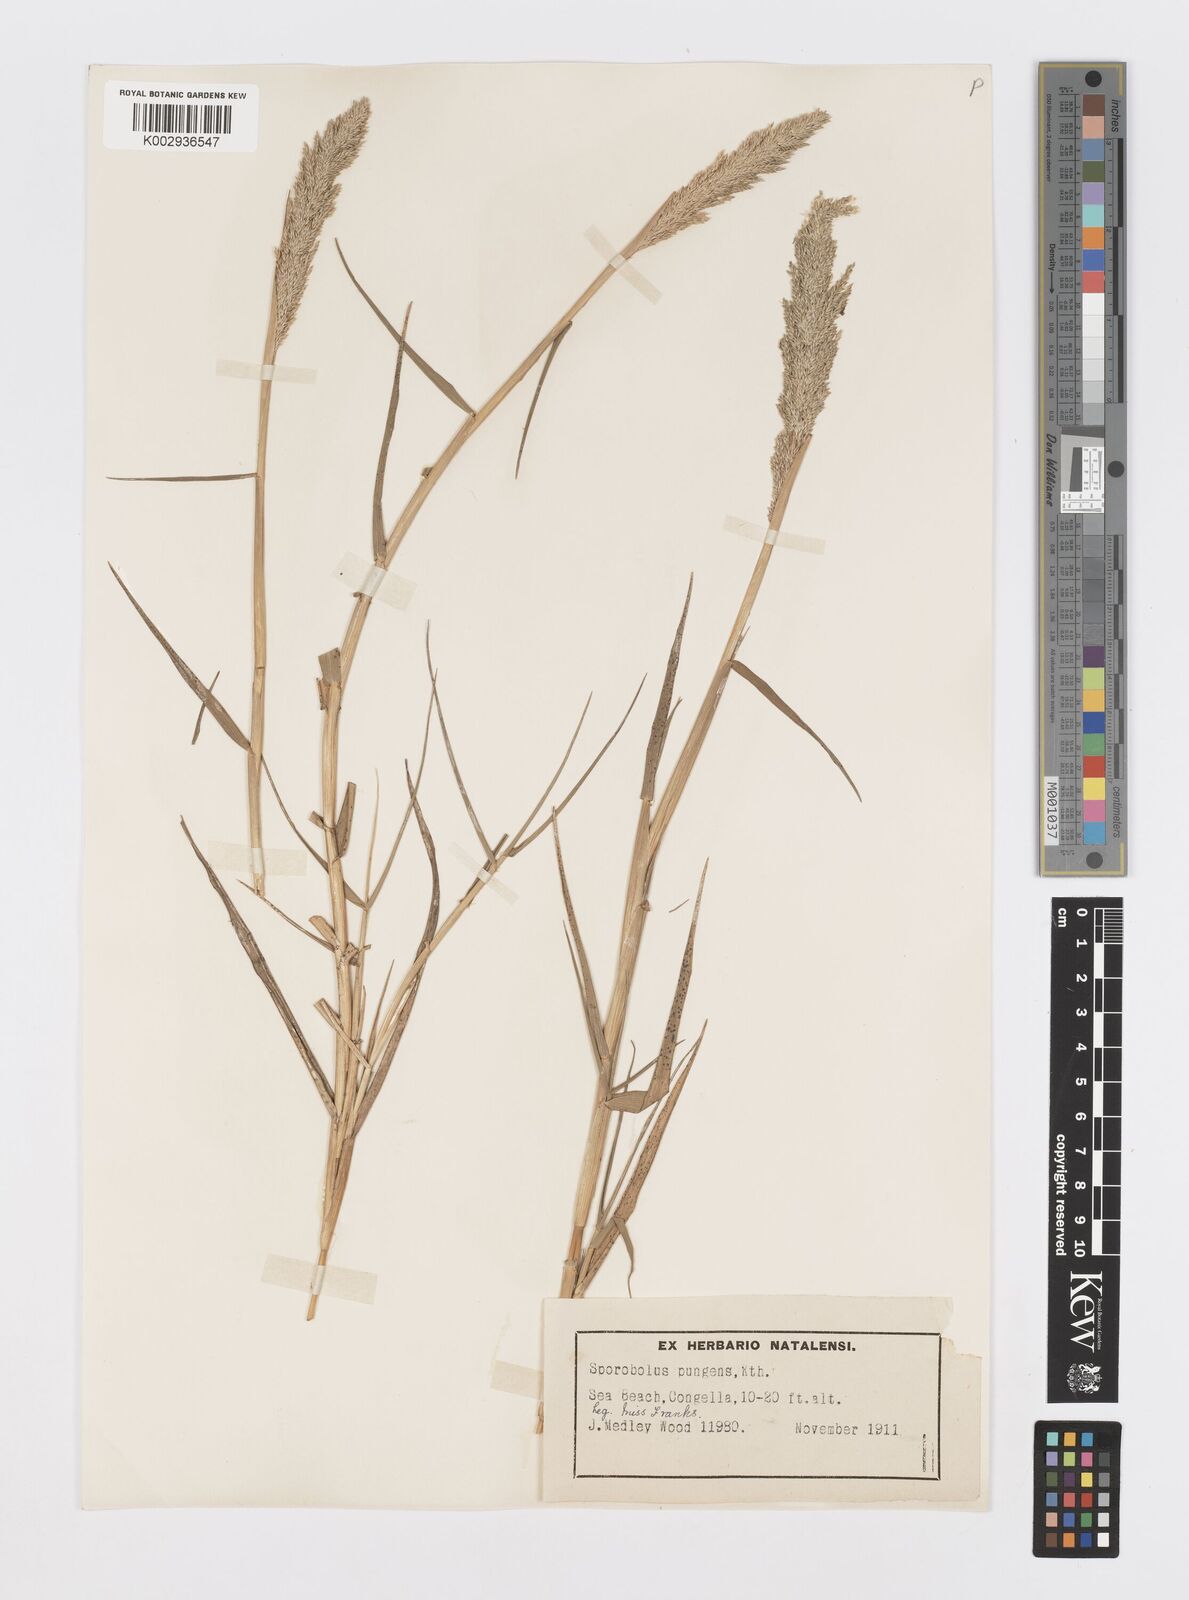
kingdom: Plantae
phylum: Tracheophyta
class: Liliopsida
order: Poales
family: Poaceae
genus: Sporobolus
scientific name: Sporobolus virginicus
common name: Beach dropseed
